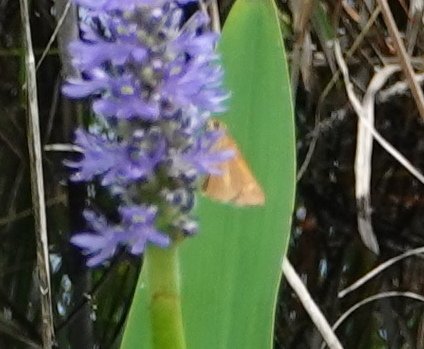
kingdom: Animalia
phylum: Arthropoda
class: Insecta
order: Lepidoptera
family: Hesperiidae
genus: Euphyes
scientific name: Euphyes dion
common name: Dion Skipper
